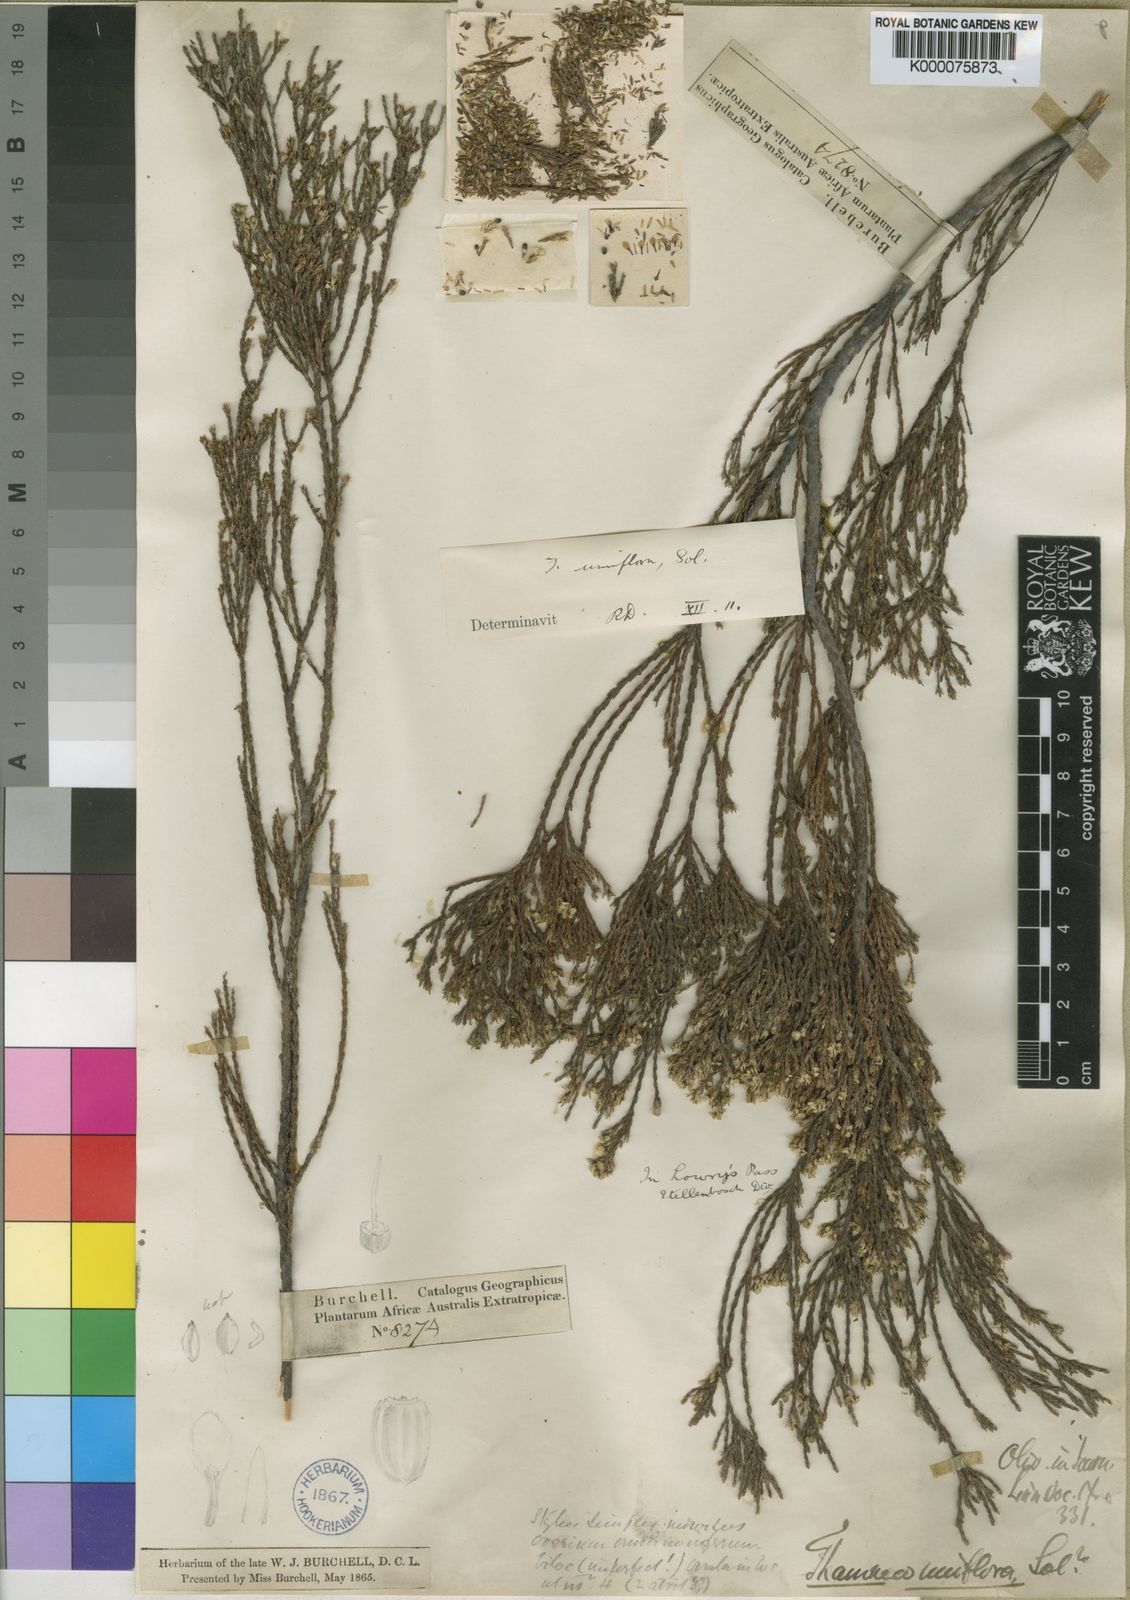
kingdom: Plantae
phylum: Tracheophyta
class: Magnoliopsida
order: Bruniales
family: Bruniaceae
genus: Thamnea
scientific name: Thamnea uniflora
